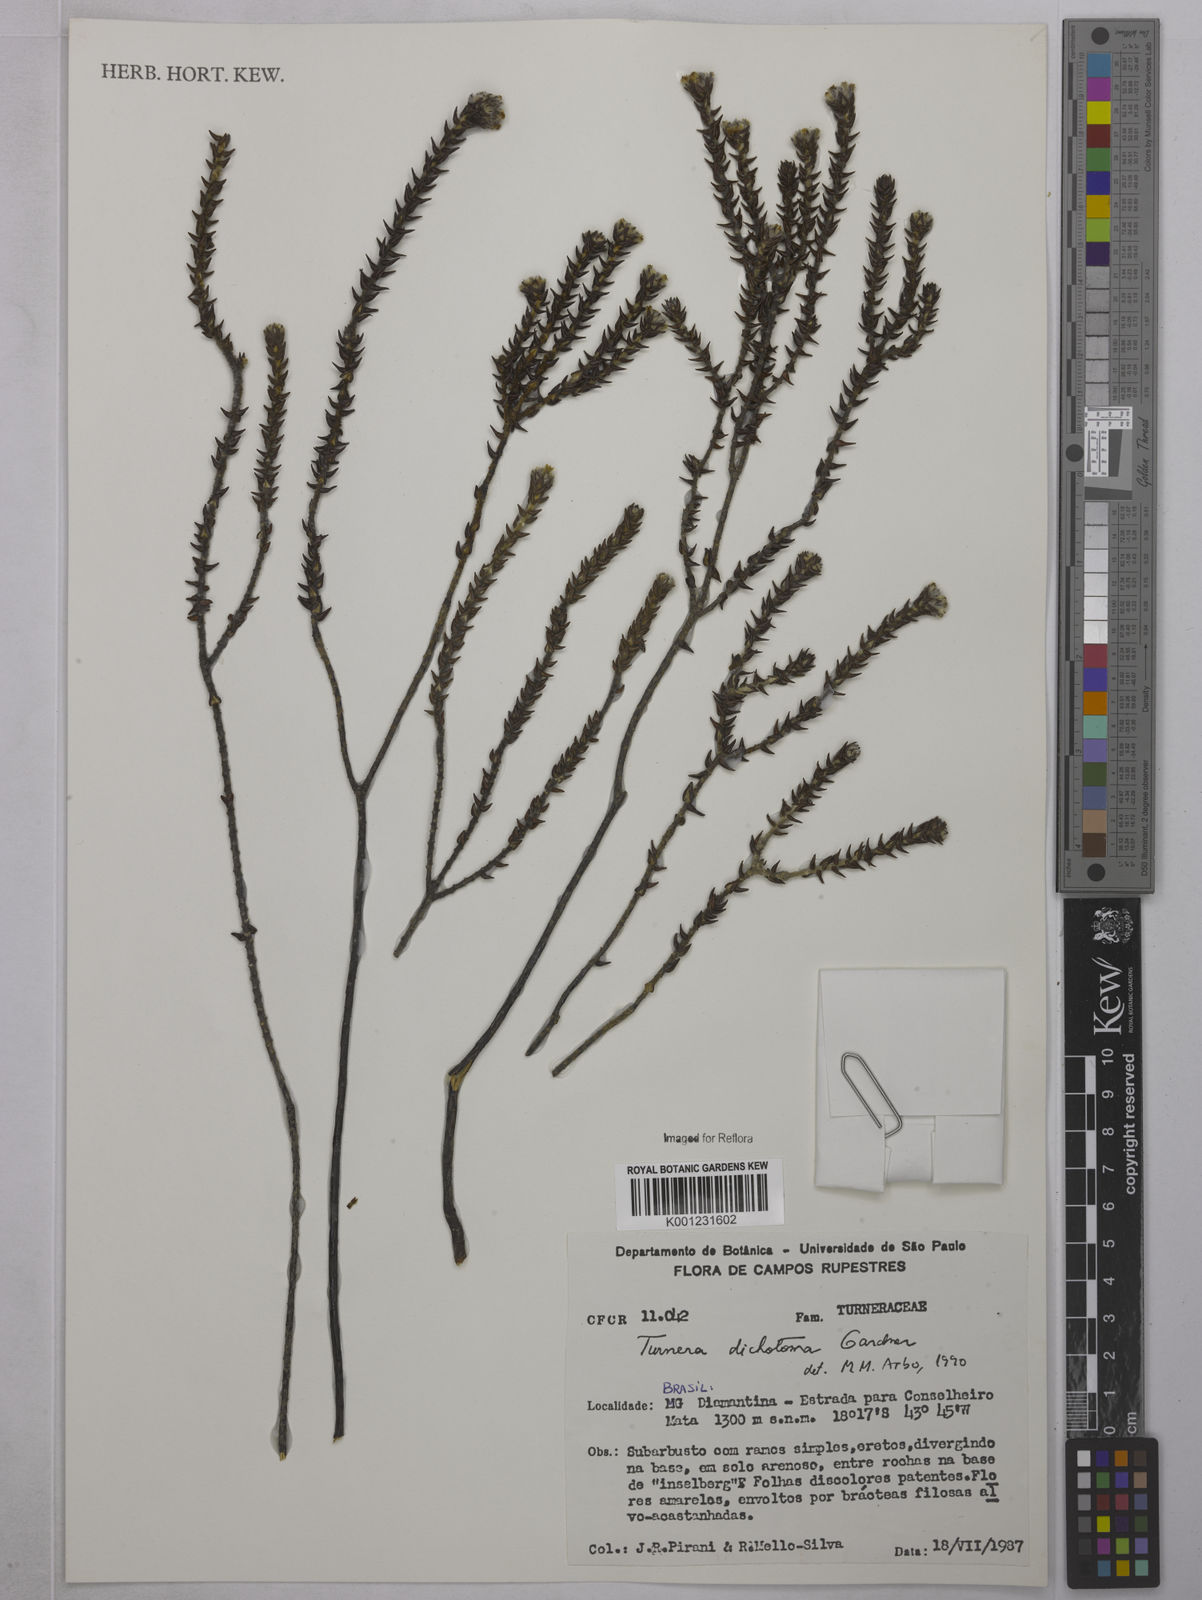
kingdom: Plantae
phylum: Tracheophyta
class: Magnoliopsida
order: Malpighiales
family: Turneraceae
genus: Turnera
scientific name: Turnera
